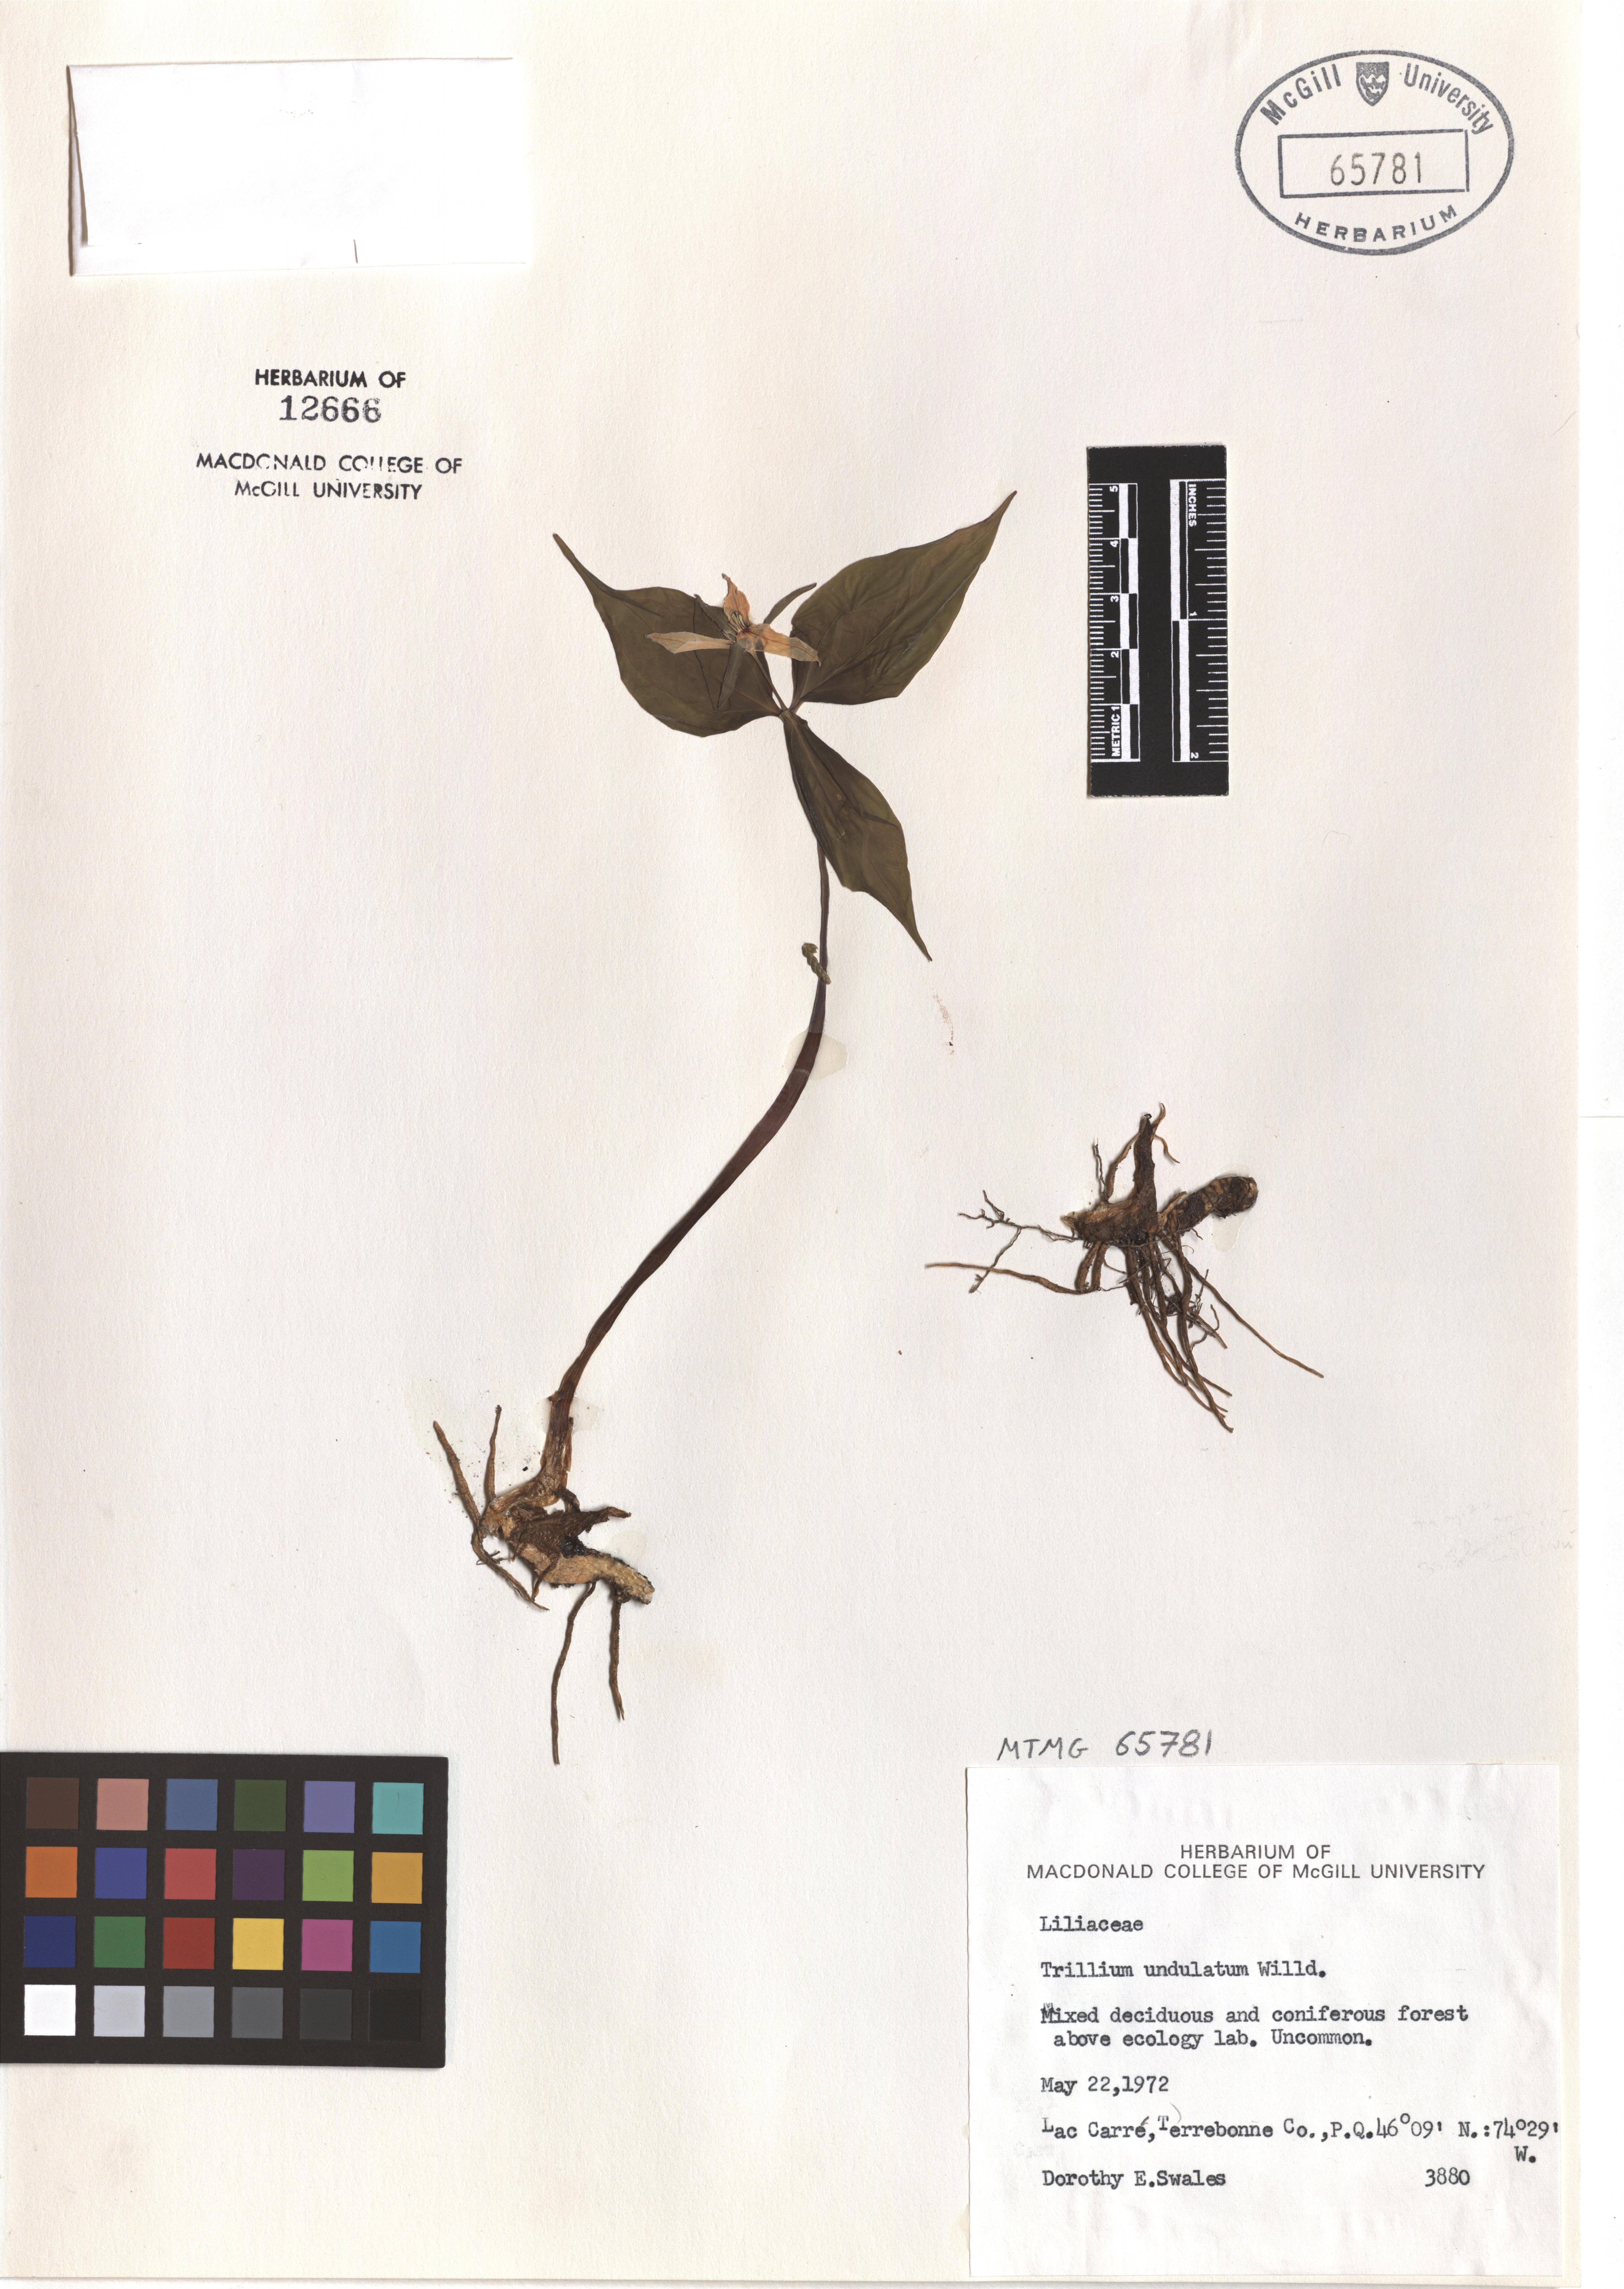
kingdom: Plantae
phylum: Tracheophyta
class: Liliopsida
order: Liliales
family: Melanthiaceae
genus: Trillium
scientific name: Trillium undulatum
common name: Paint trillium
